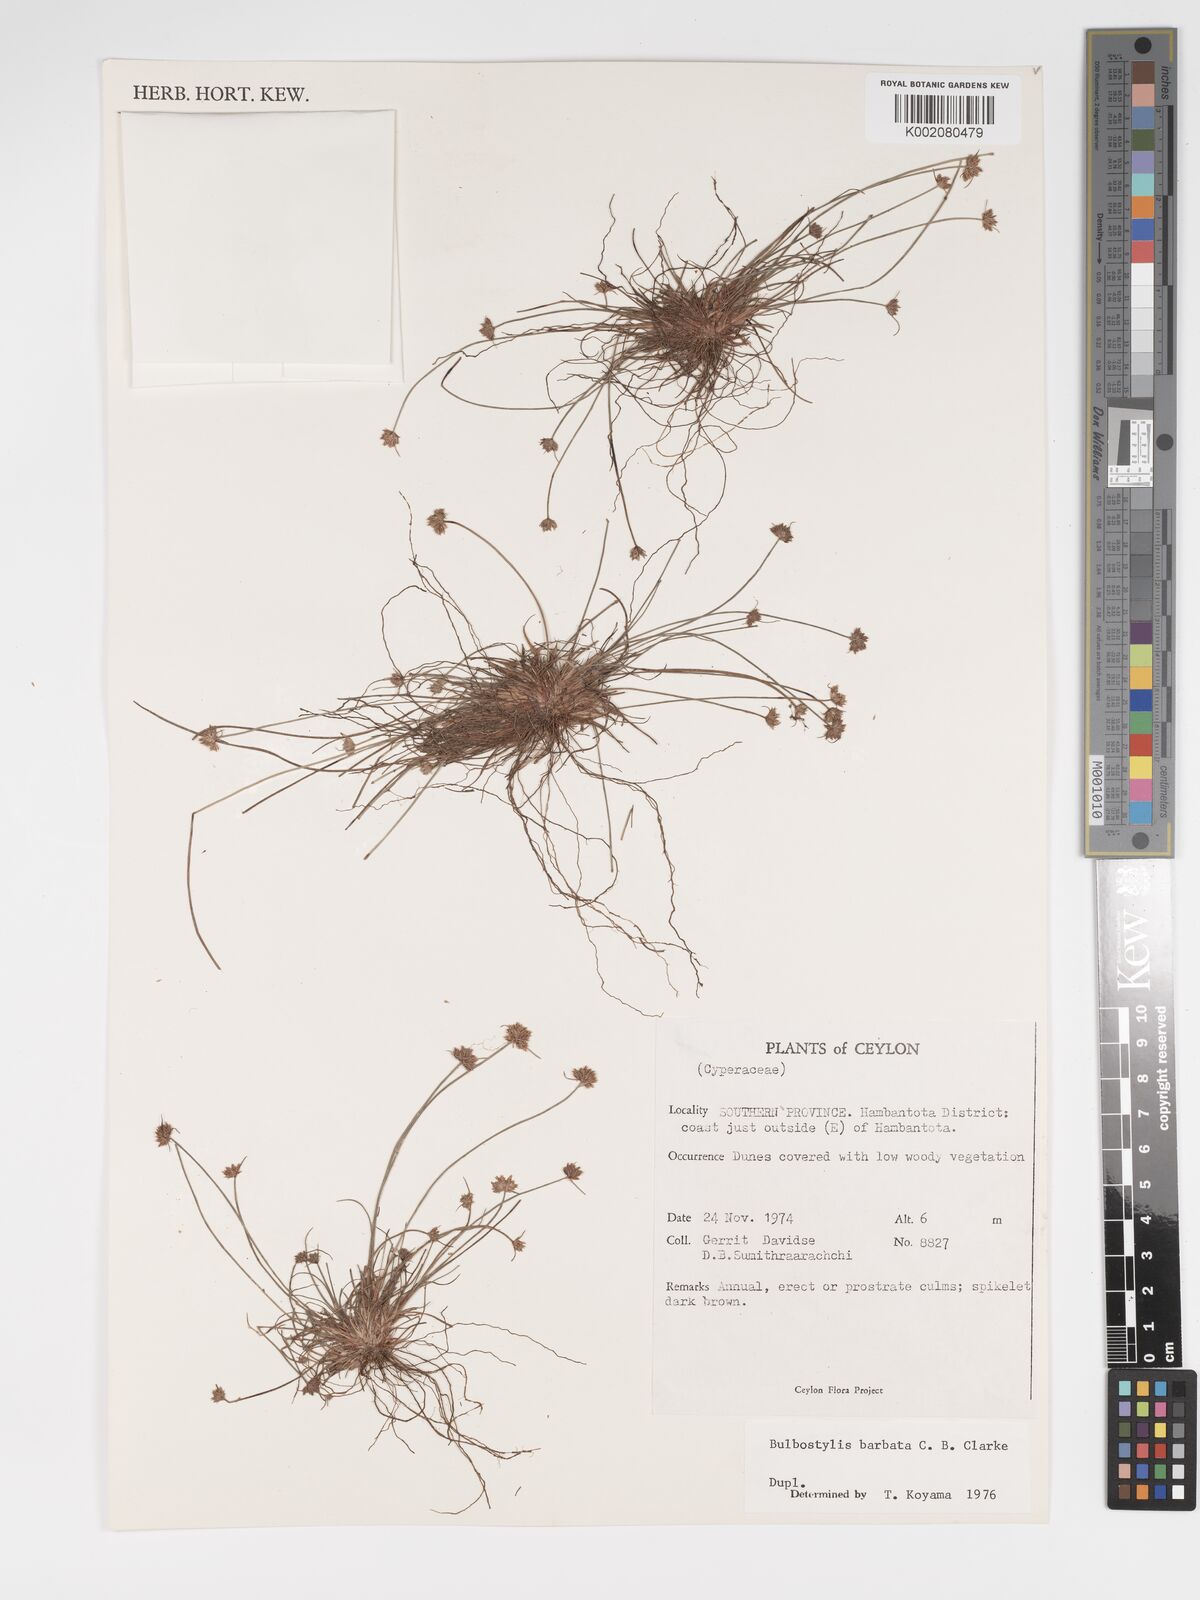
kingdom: Plantae
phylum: Tracheophyta
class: Liliopsida
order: Poales
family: Cyperaceae
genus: Bulbostylis
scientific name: Bulbostylis barbata
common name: Watergrass
